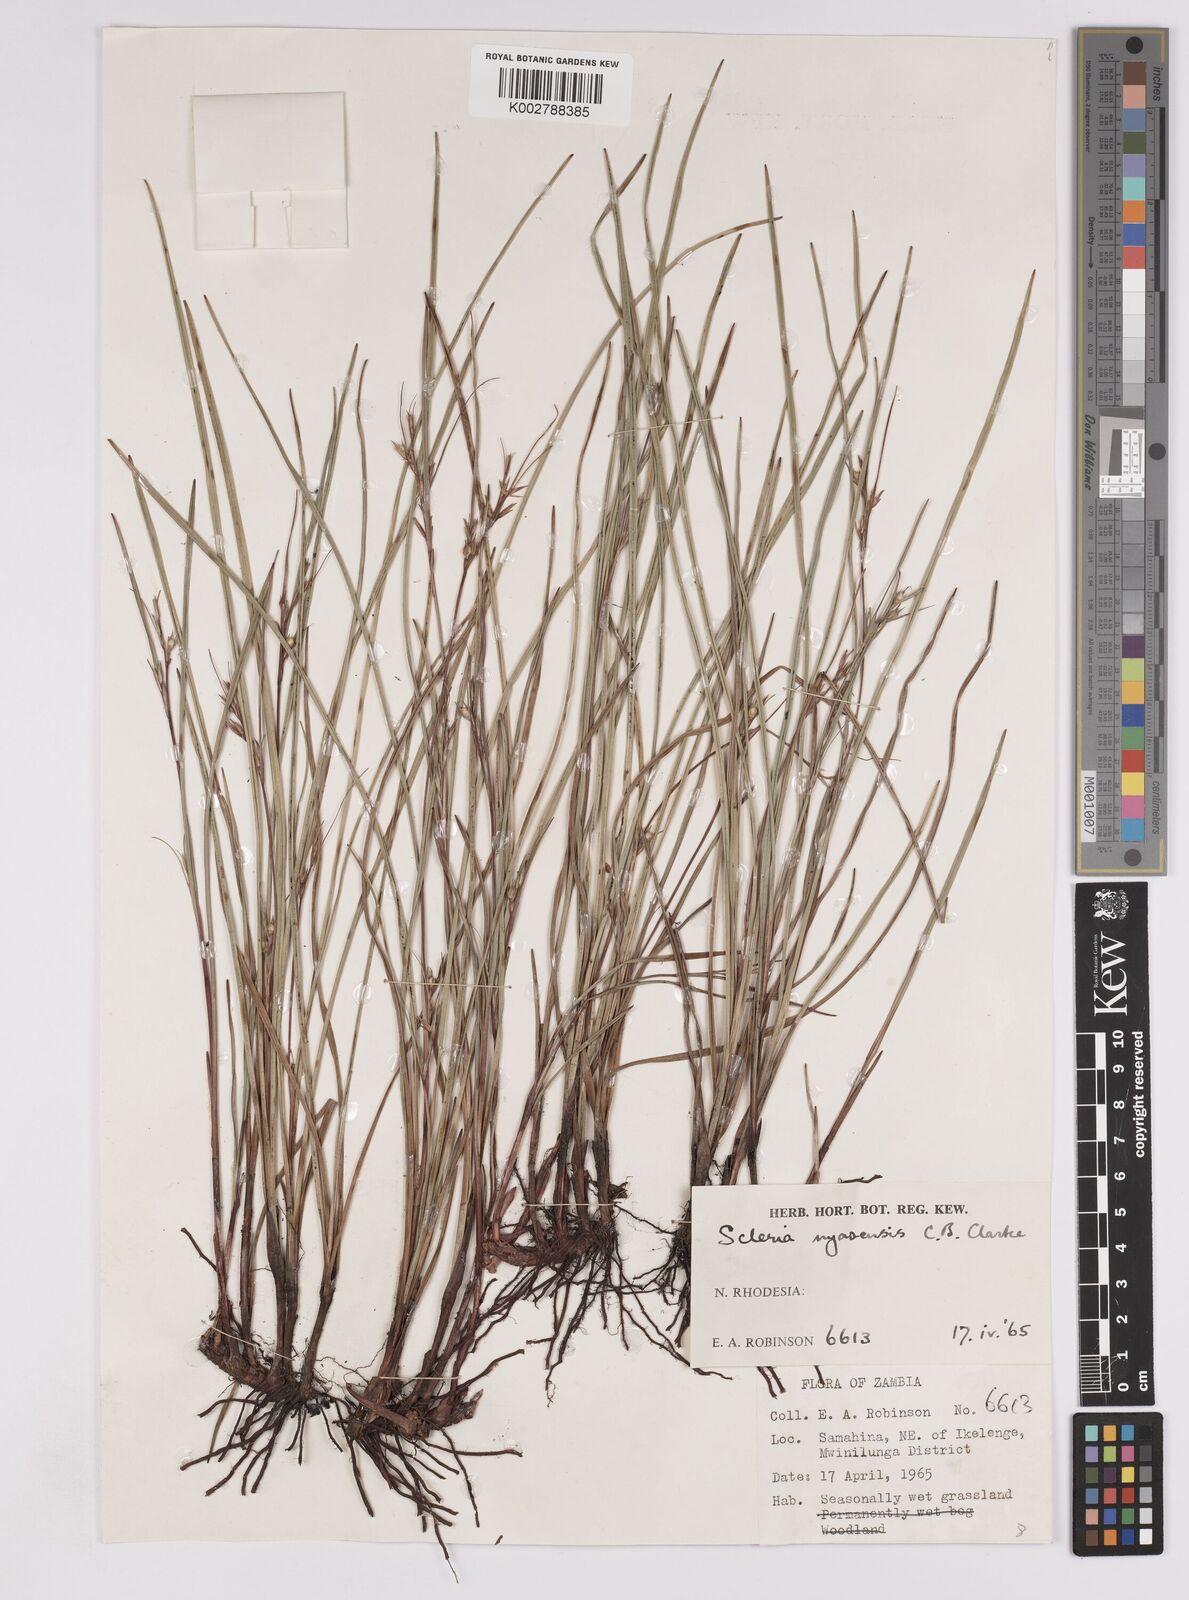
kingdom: Plantae
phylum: Tracheophyta
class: Liliopsida
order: Poales
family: Cyperaceae
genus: Scleria
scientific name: Scleria nyasensis
